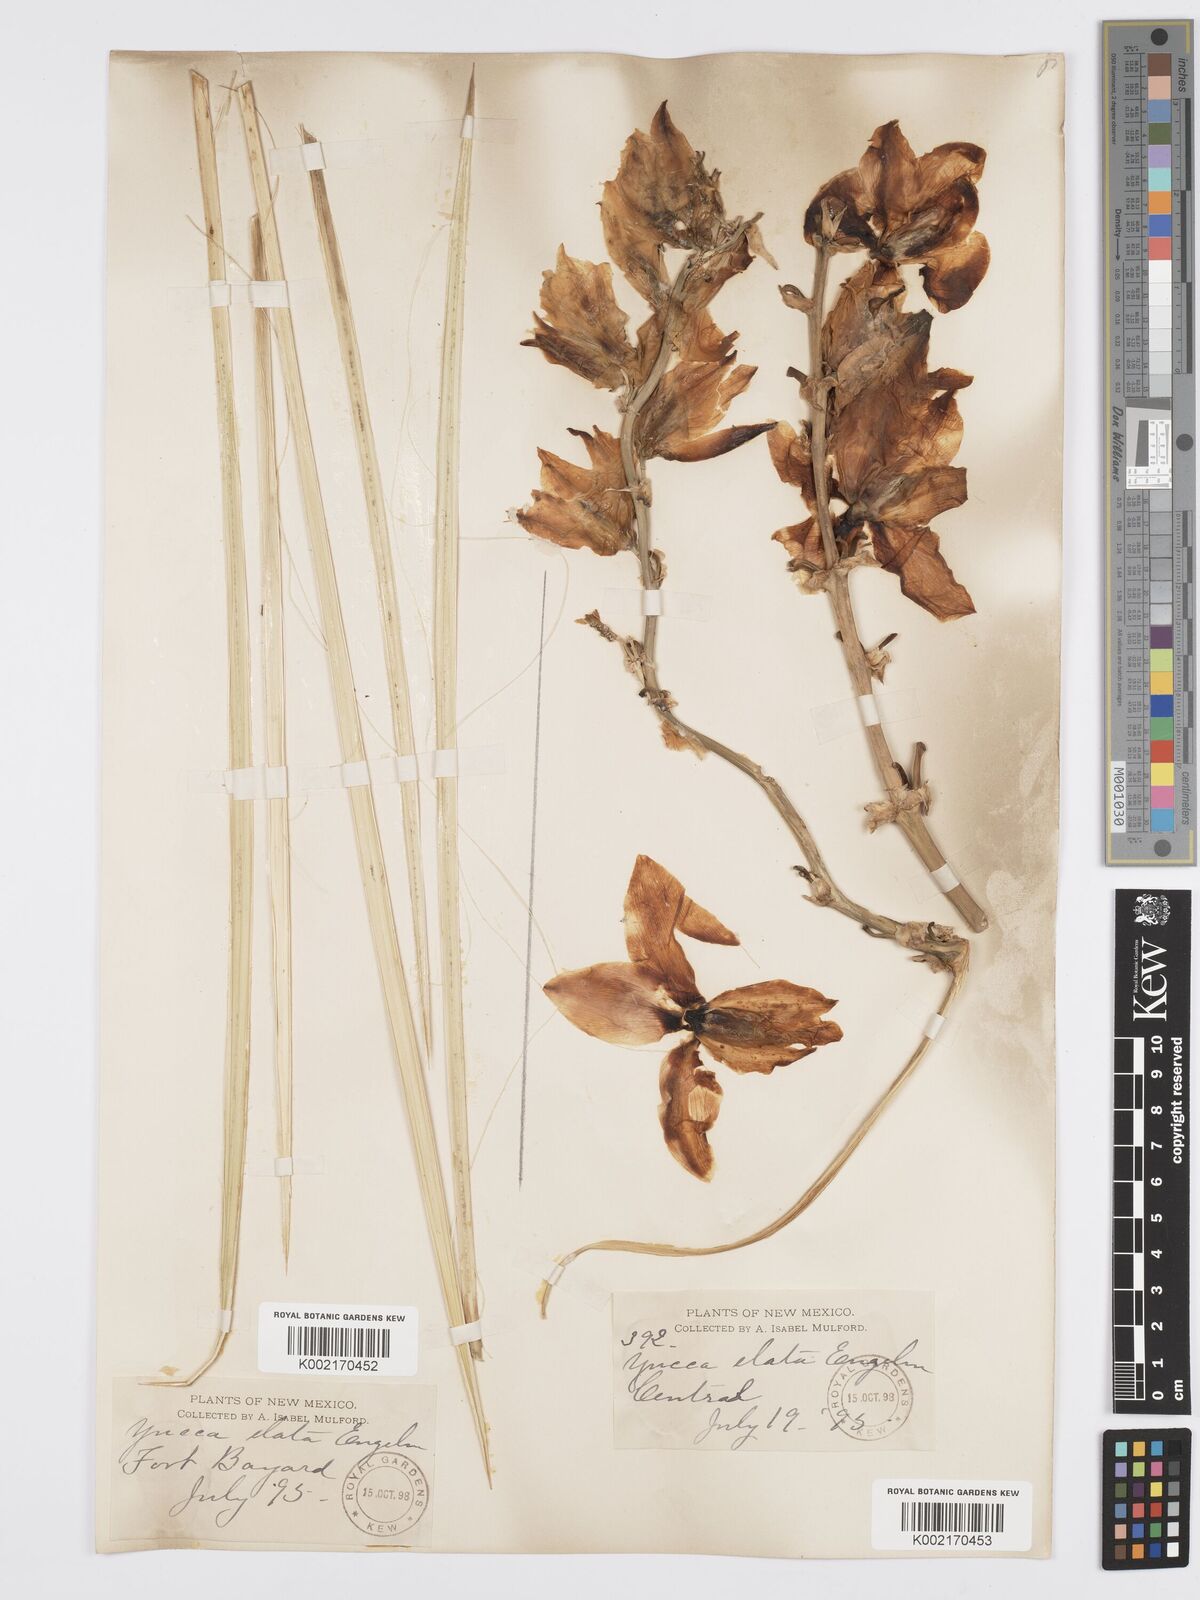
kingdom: Plantae
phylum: Tracheophyta
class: Liliopsida
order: Asparagales
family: Asparagaceae
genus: Yucca
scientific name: Yucca elata
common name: Palmella
